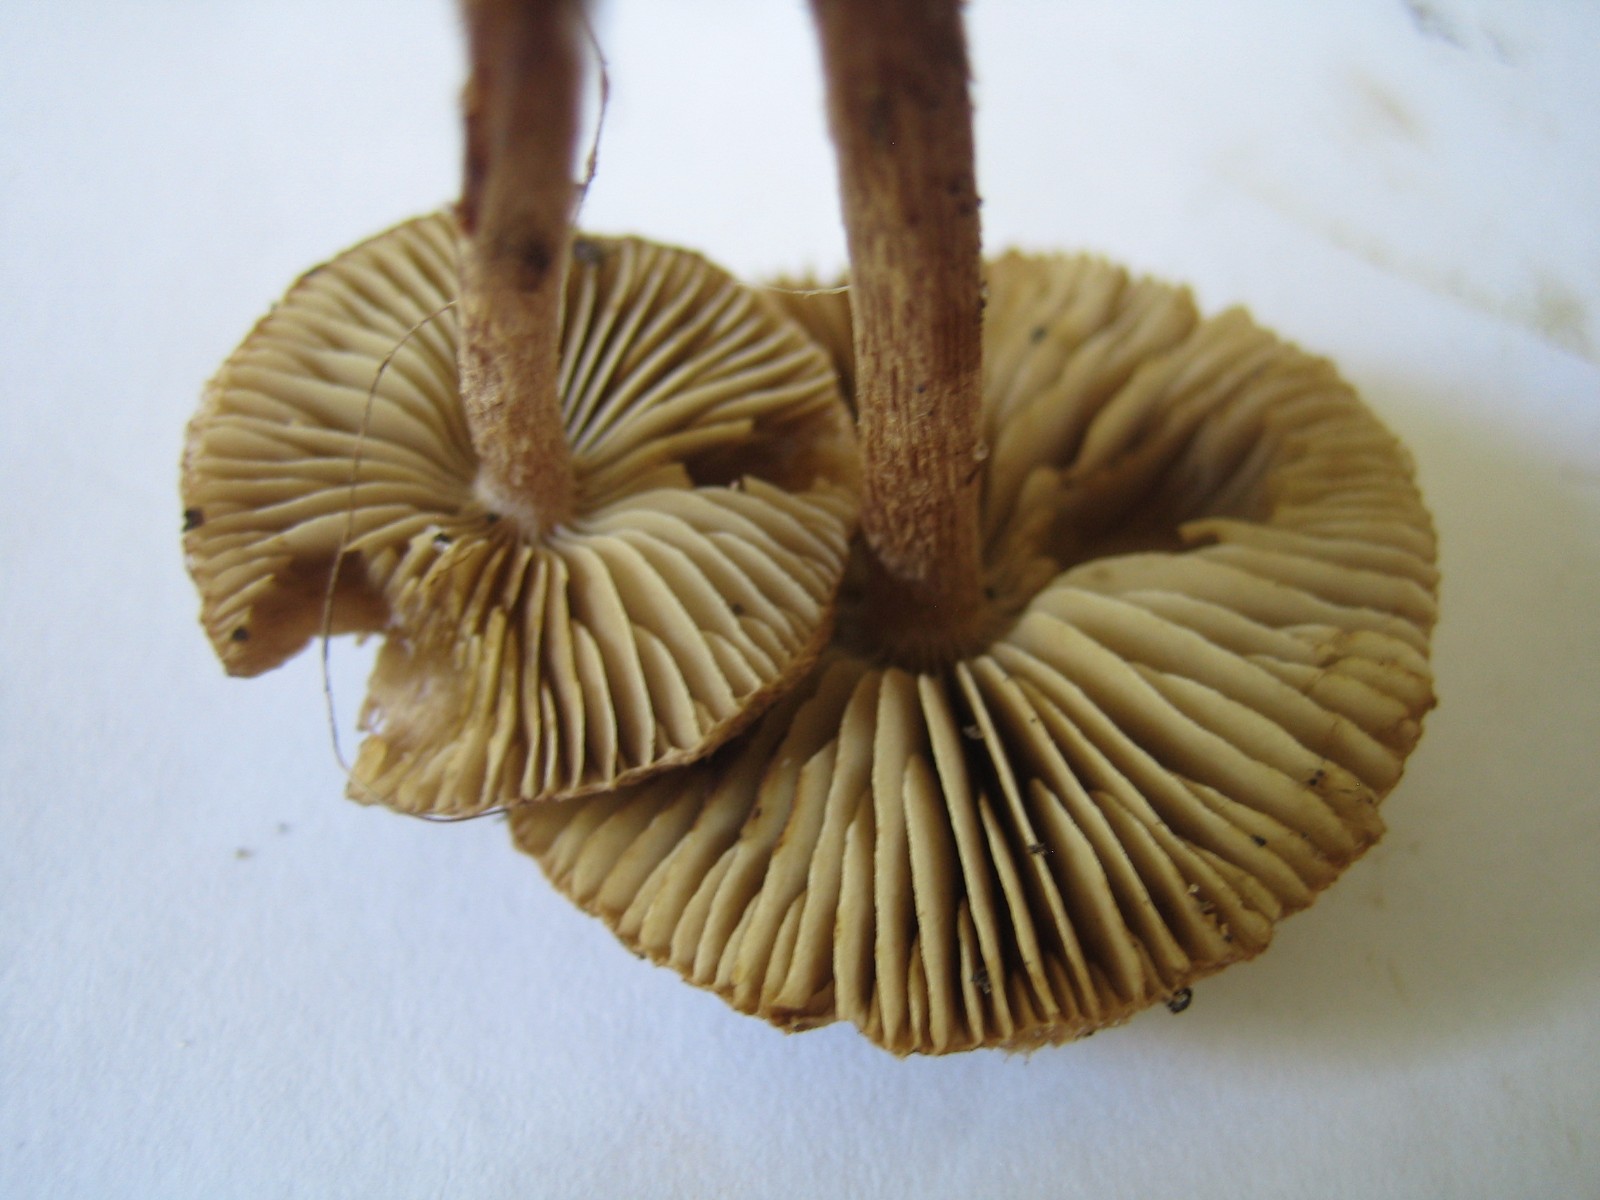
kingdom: Fungi
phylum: Basidiomycota
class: Agaricomycetes
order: Agaricales
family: Inocybaceae
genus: Inocybe
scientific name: Inocybe napipes
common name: roeknoldet trævlhat
